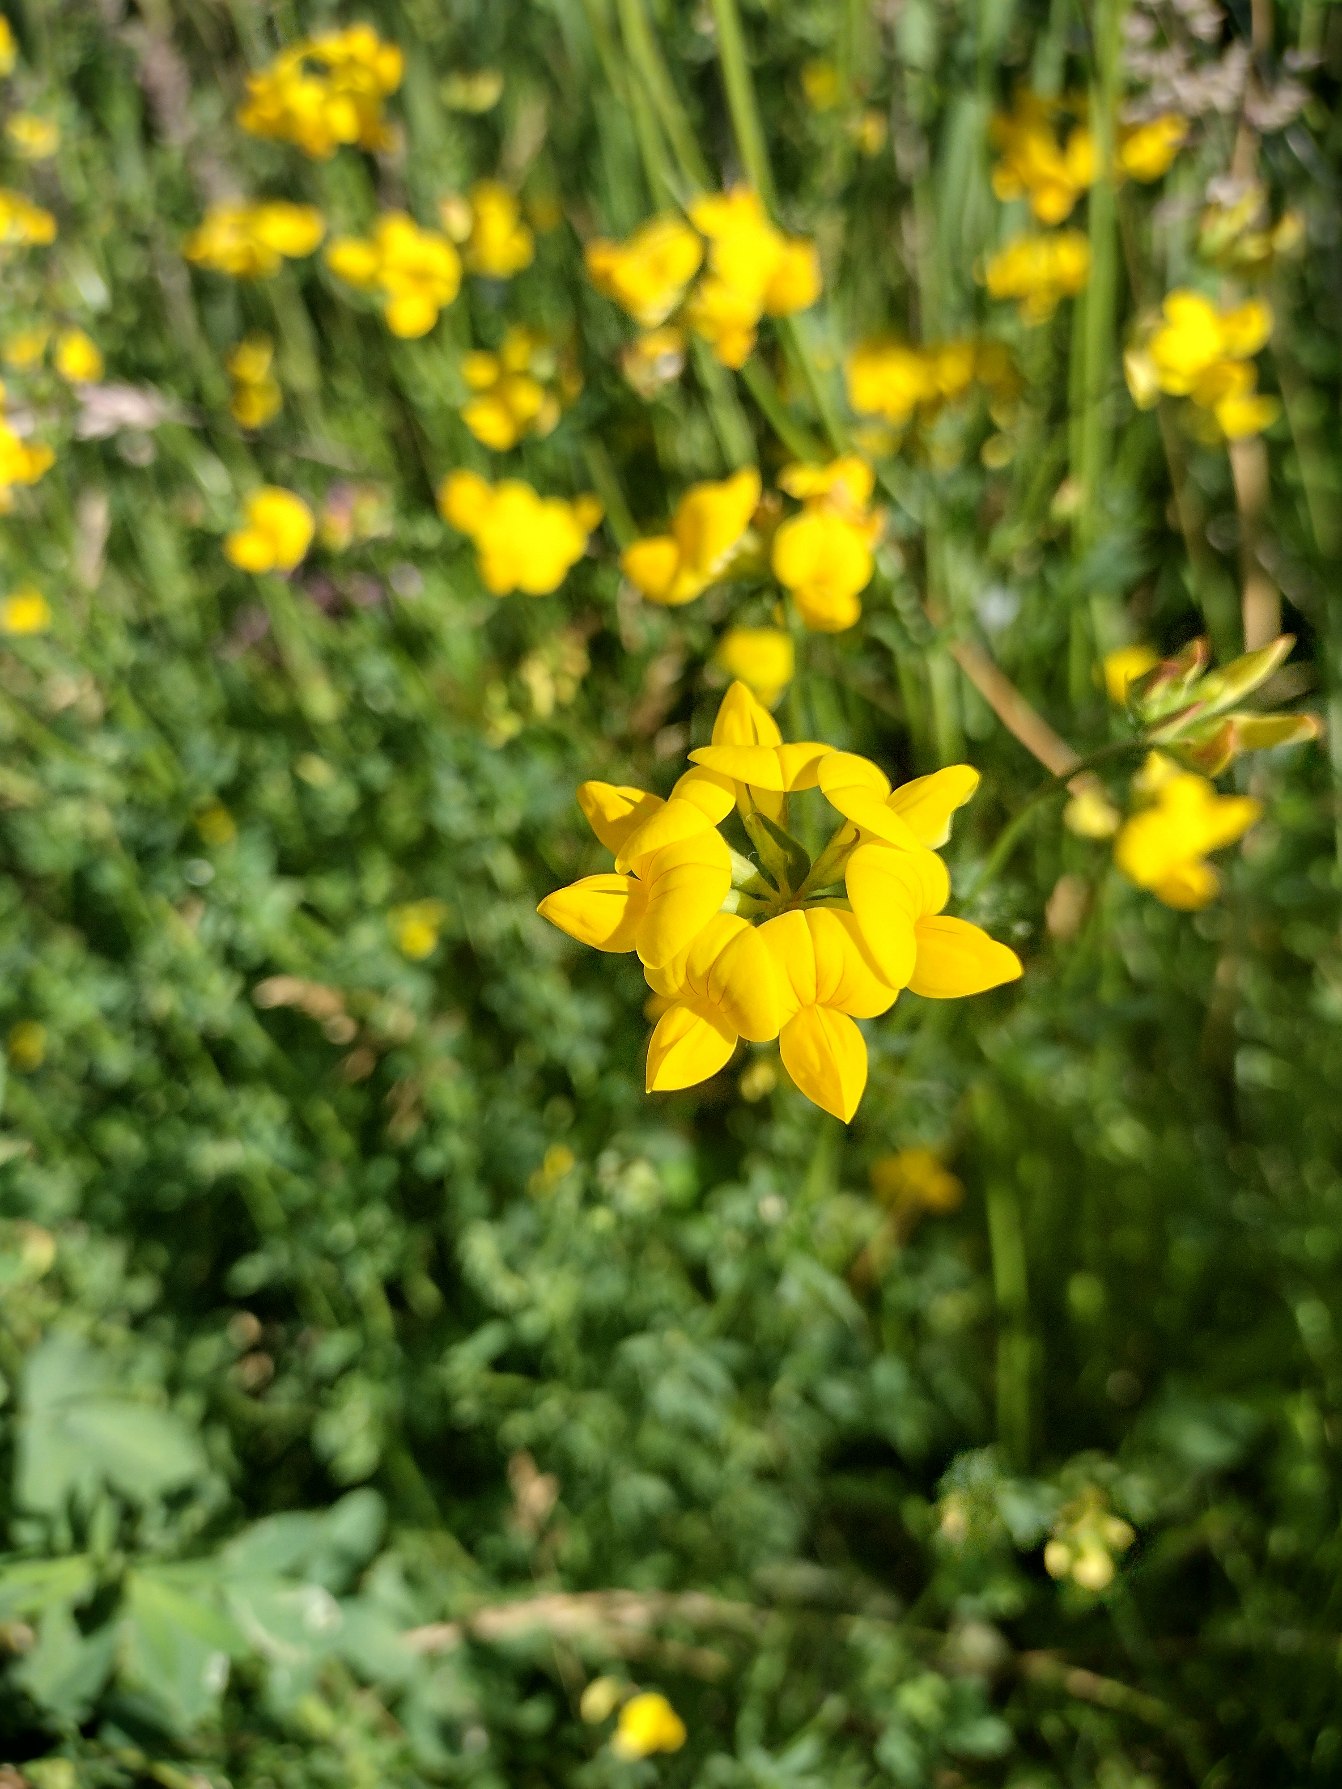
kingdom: Plantae
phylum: Tracheophyta
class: Magnoliopsida
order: Fabales
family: Fabaceae
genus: Lotus
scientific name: Lotus corniculatus
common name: Almindelig kællingetand
